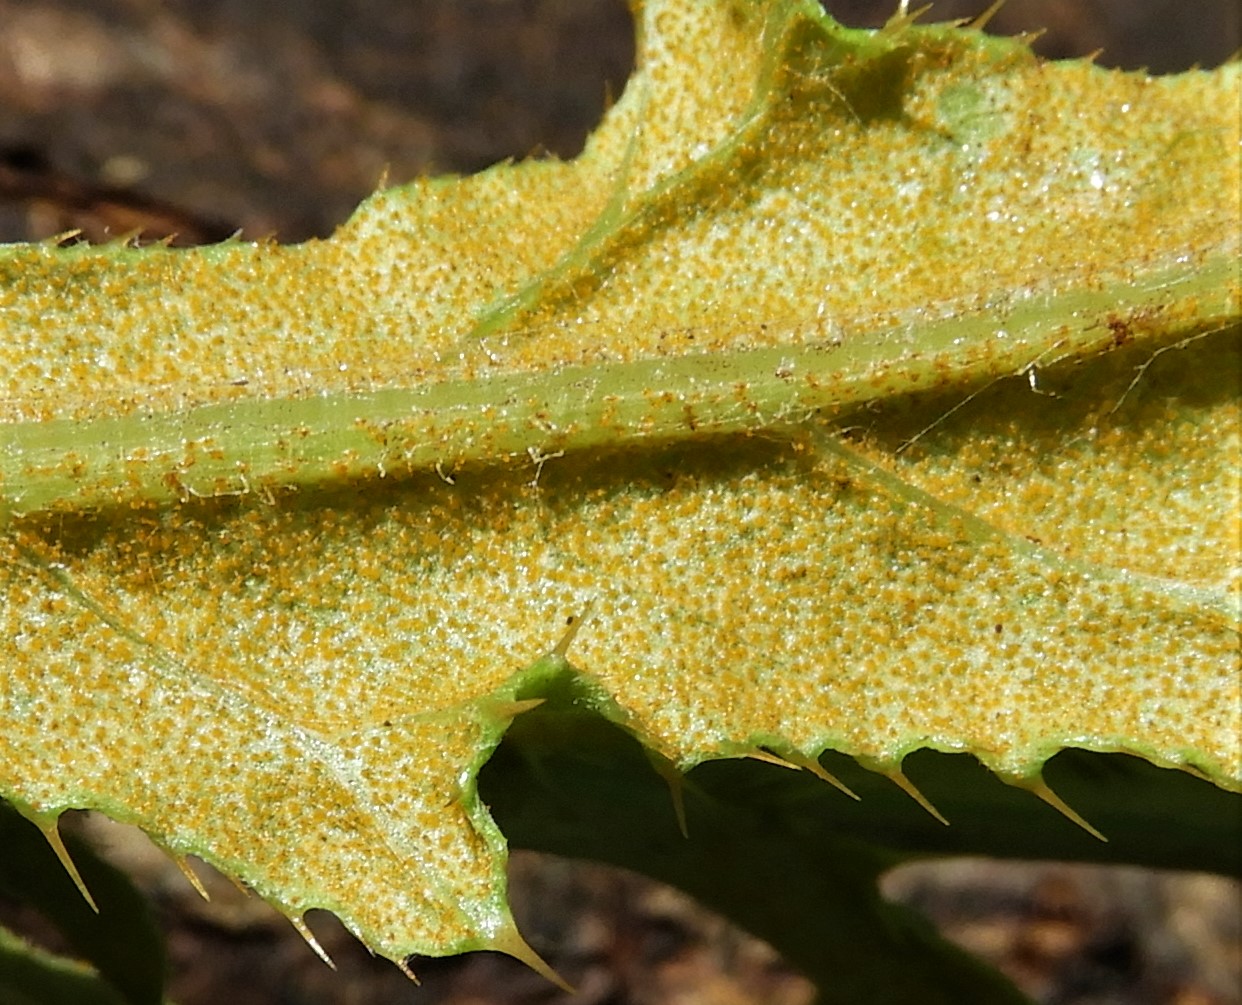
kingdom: Fungi
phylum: Basidiomycota
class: Pucciniomycetes
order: Pucciniales
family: Pucciniaceae
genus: Puccinia
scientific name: Puccinia suaveolens
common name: tidsel-tvecellerust
